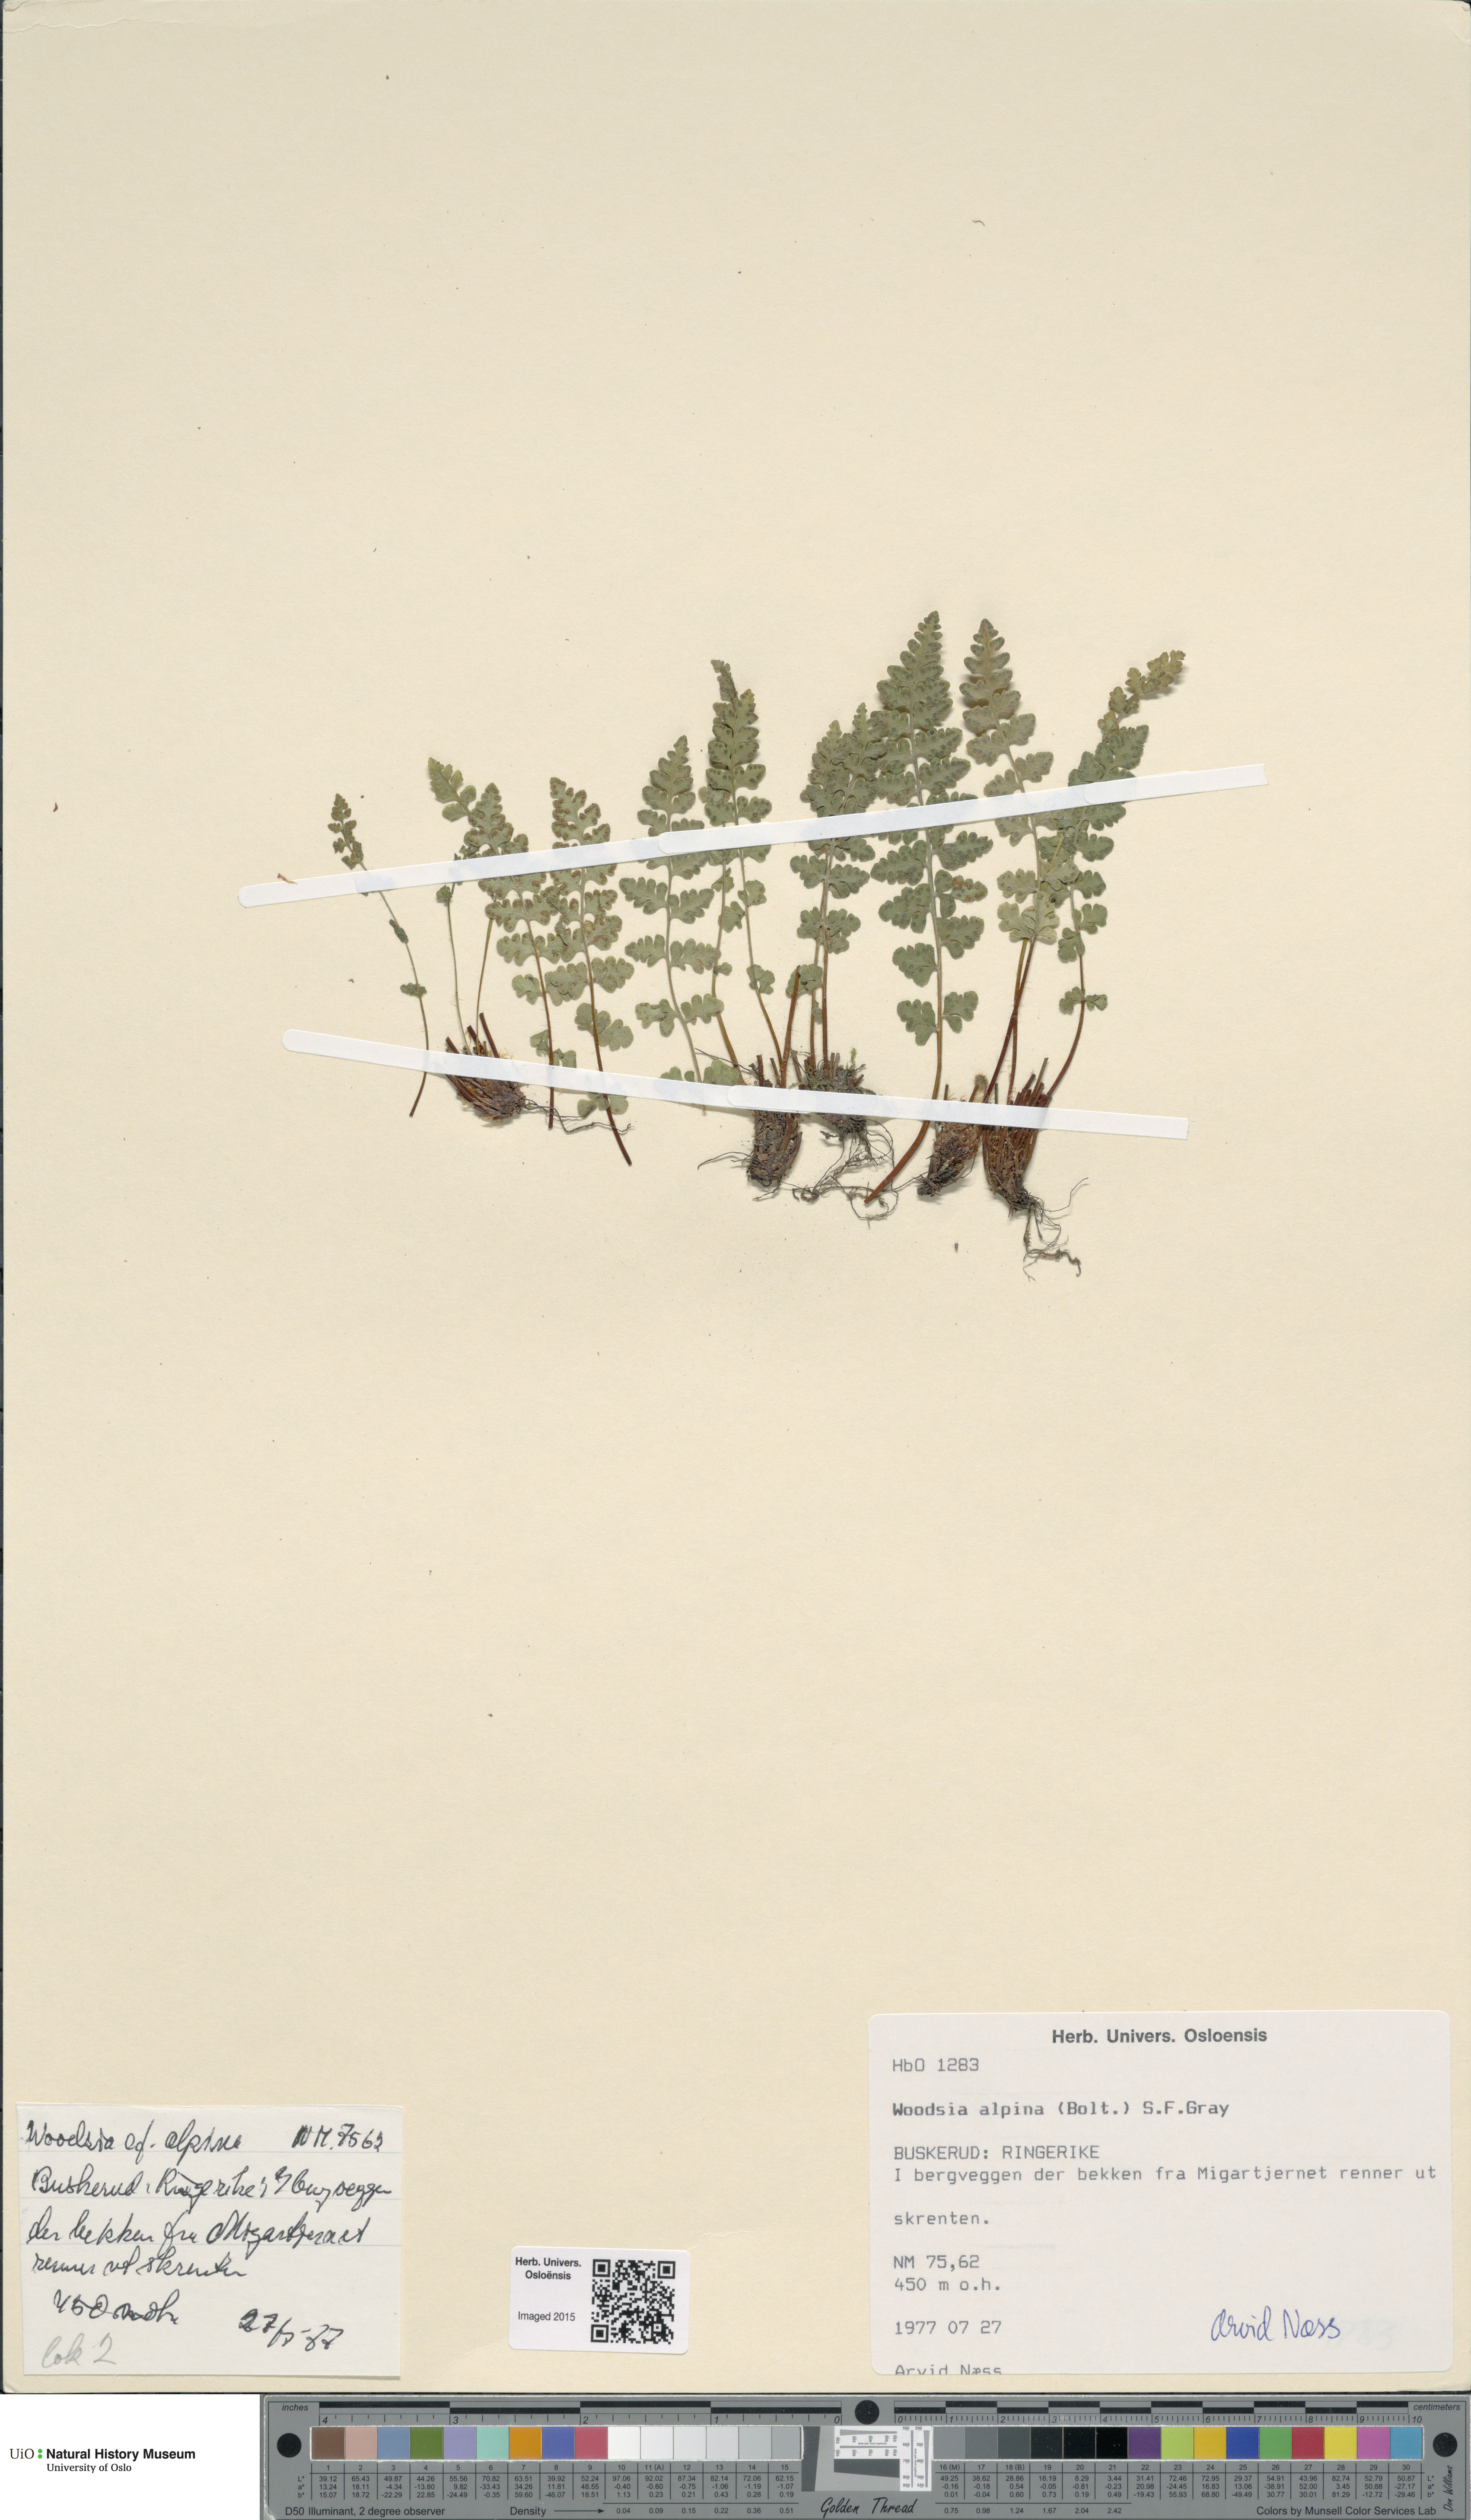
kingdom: Plantae
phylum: Tracheophyta
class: Polypodiopsida
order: Polypodiales
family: Woodsiaceae
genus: Woodsia
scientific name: Woodsia alpina
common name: Alpine woodsia
